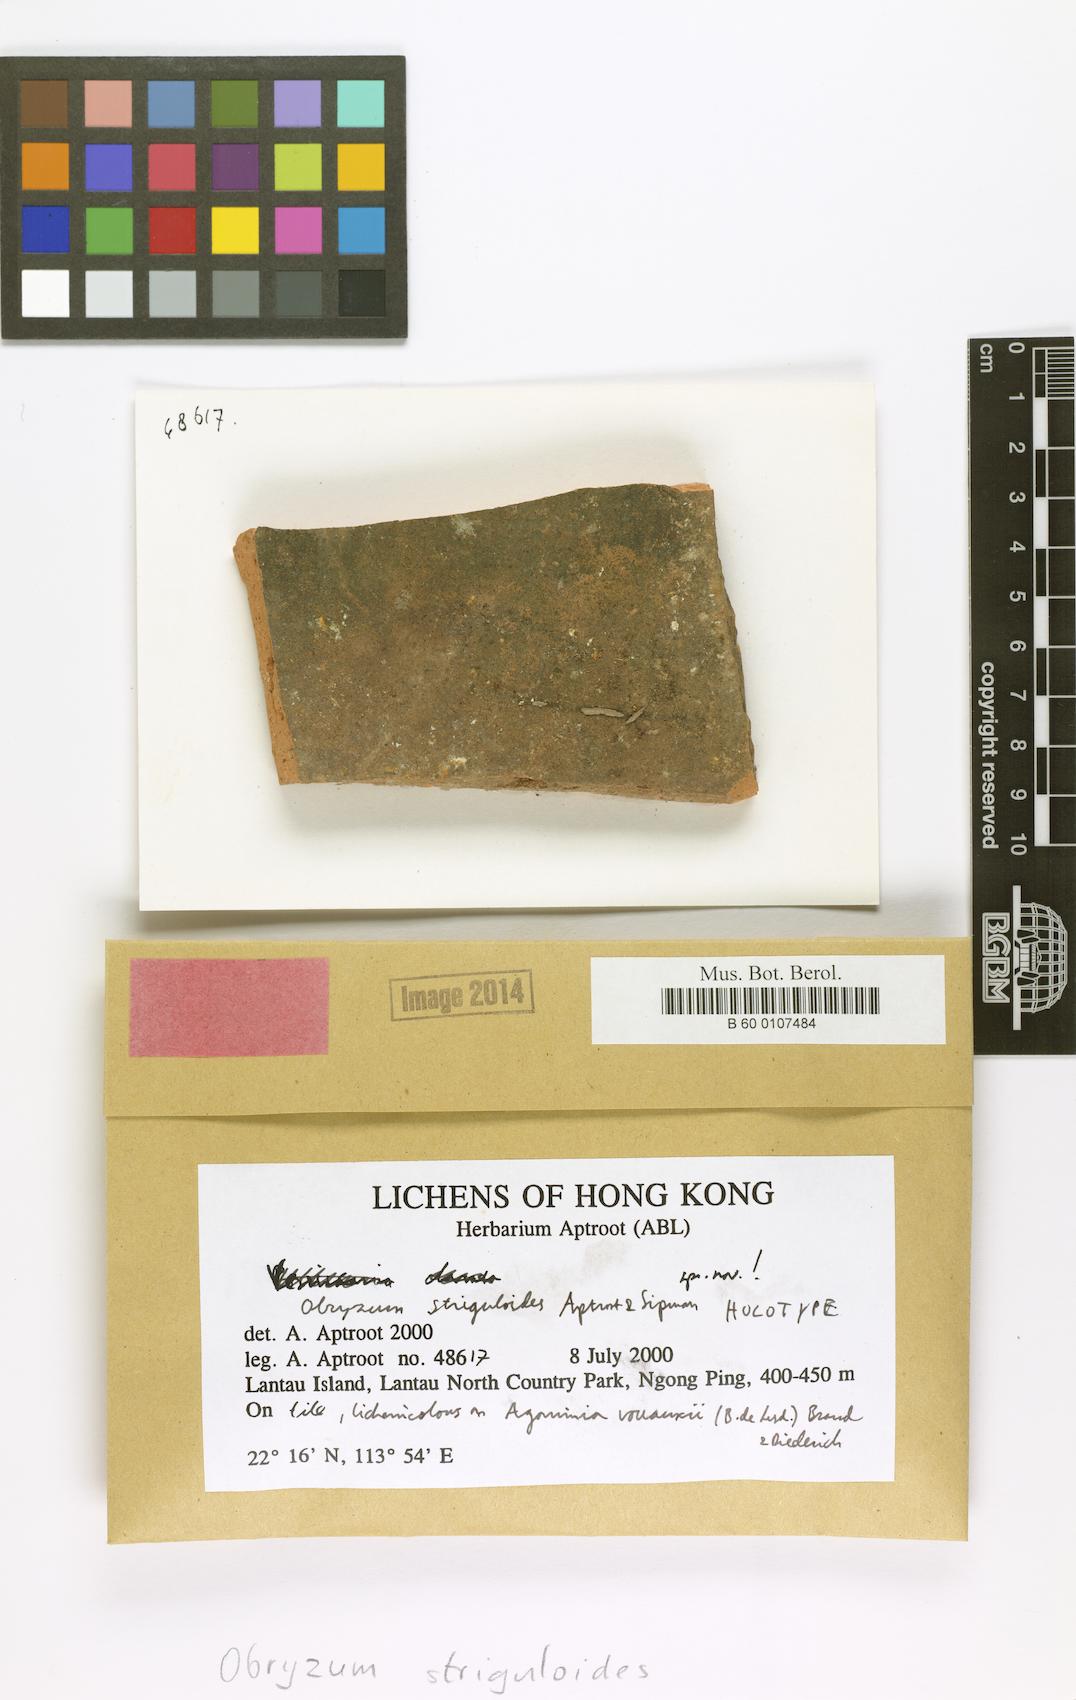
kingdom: Fungi
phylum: Ascomycota
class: Sordariomycetes
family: Obryzaceae
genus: Obryzum
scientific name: Obryzum striguloides
